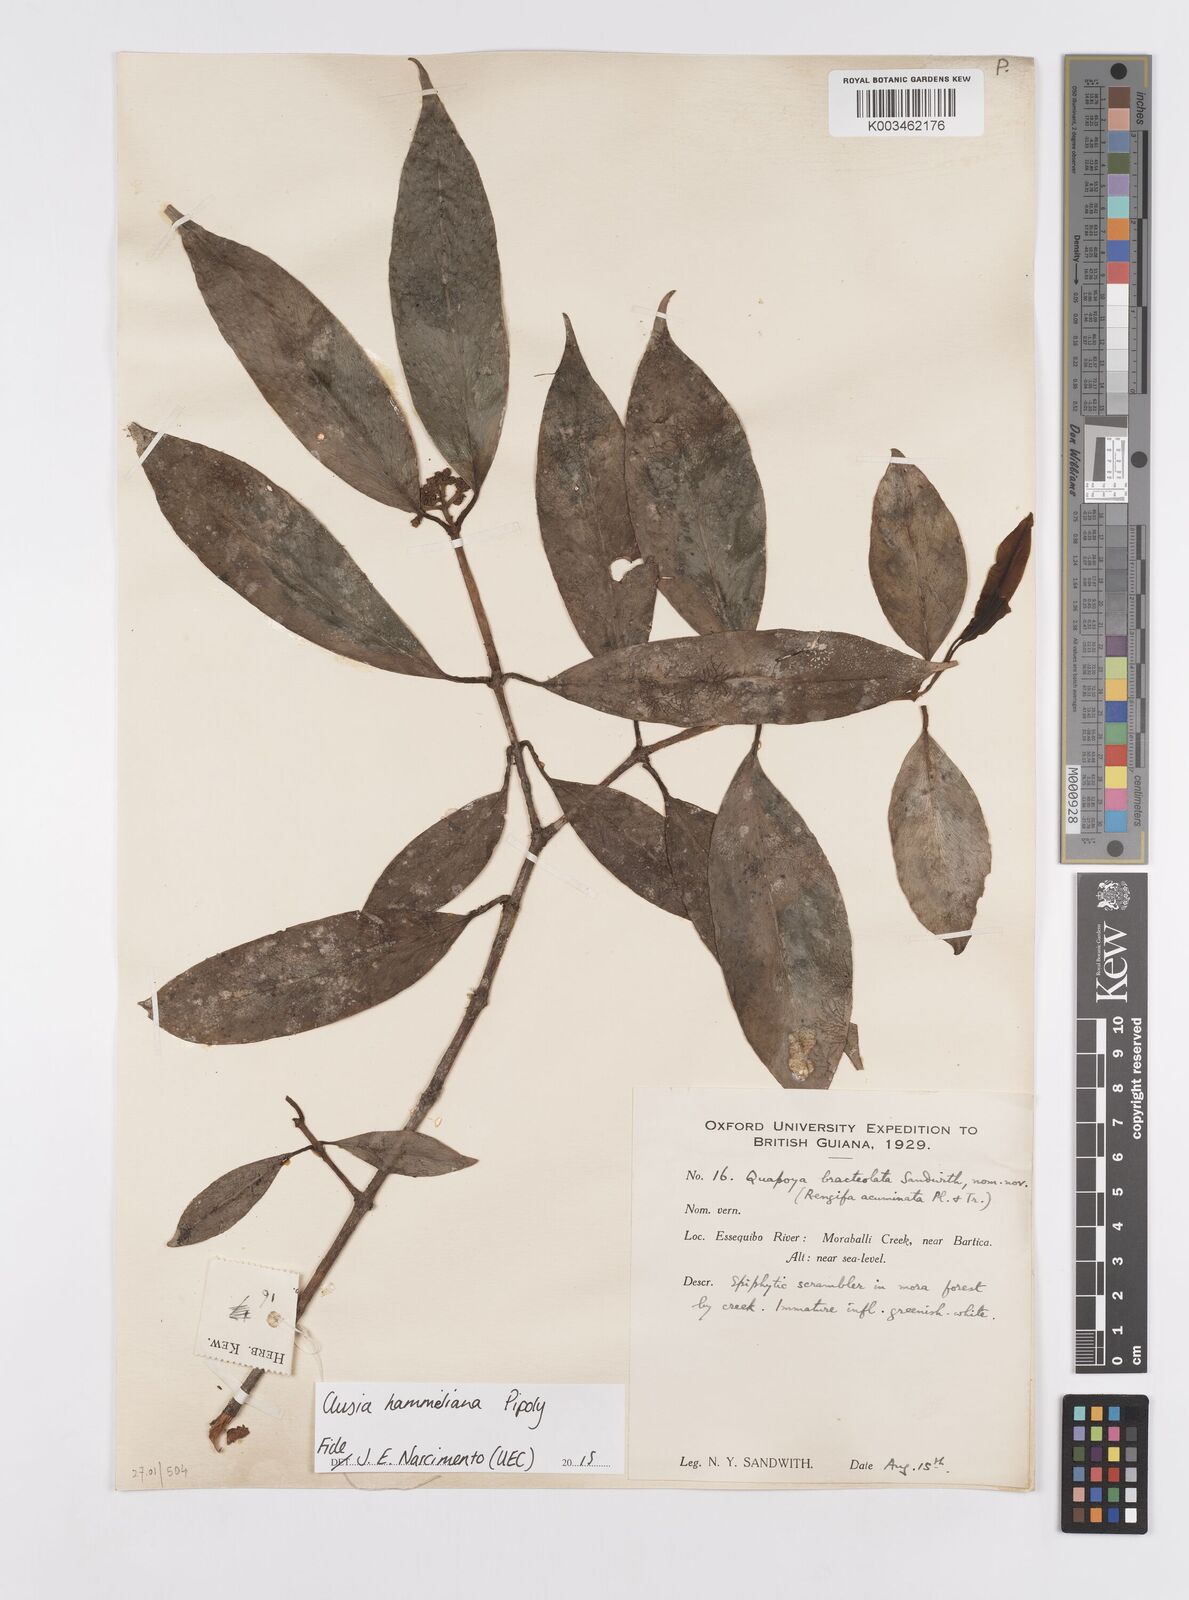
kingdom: Plantae
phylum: Tracheophyta
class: Magnoliopsida
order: Malpighiales
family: Clusiaceae
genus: Clusia
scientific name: Clusia hammeliana
